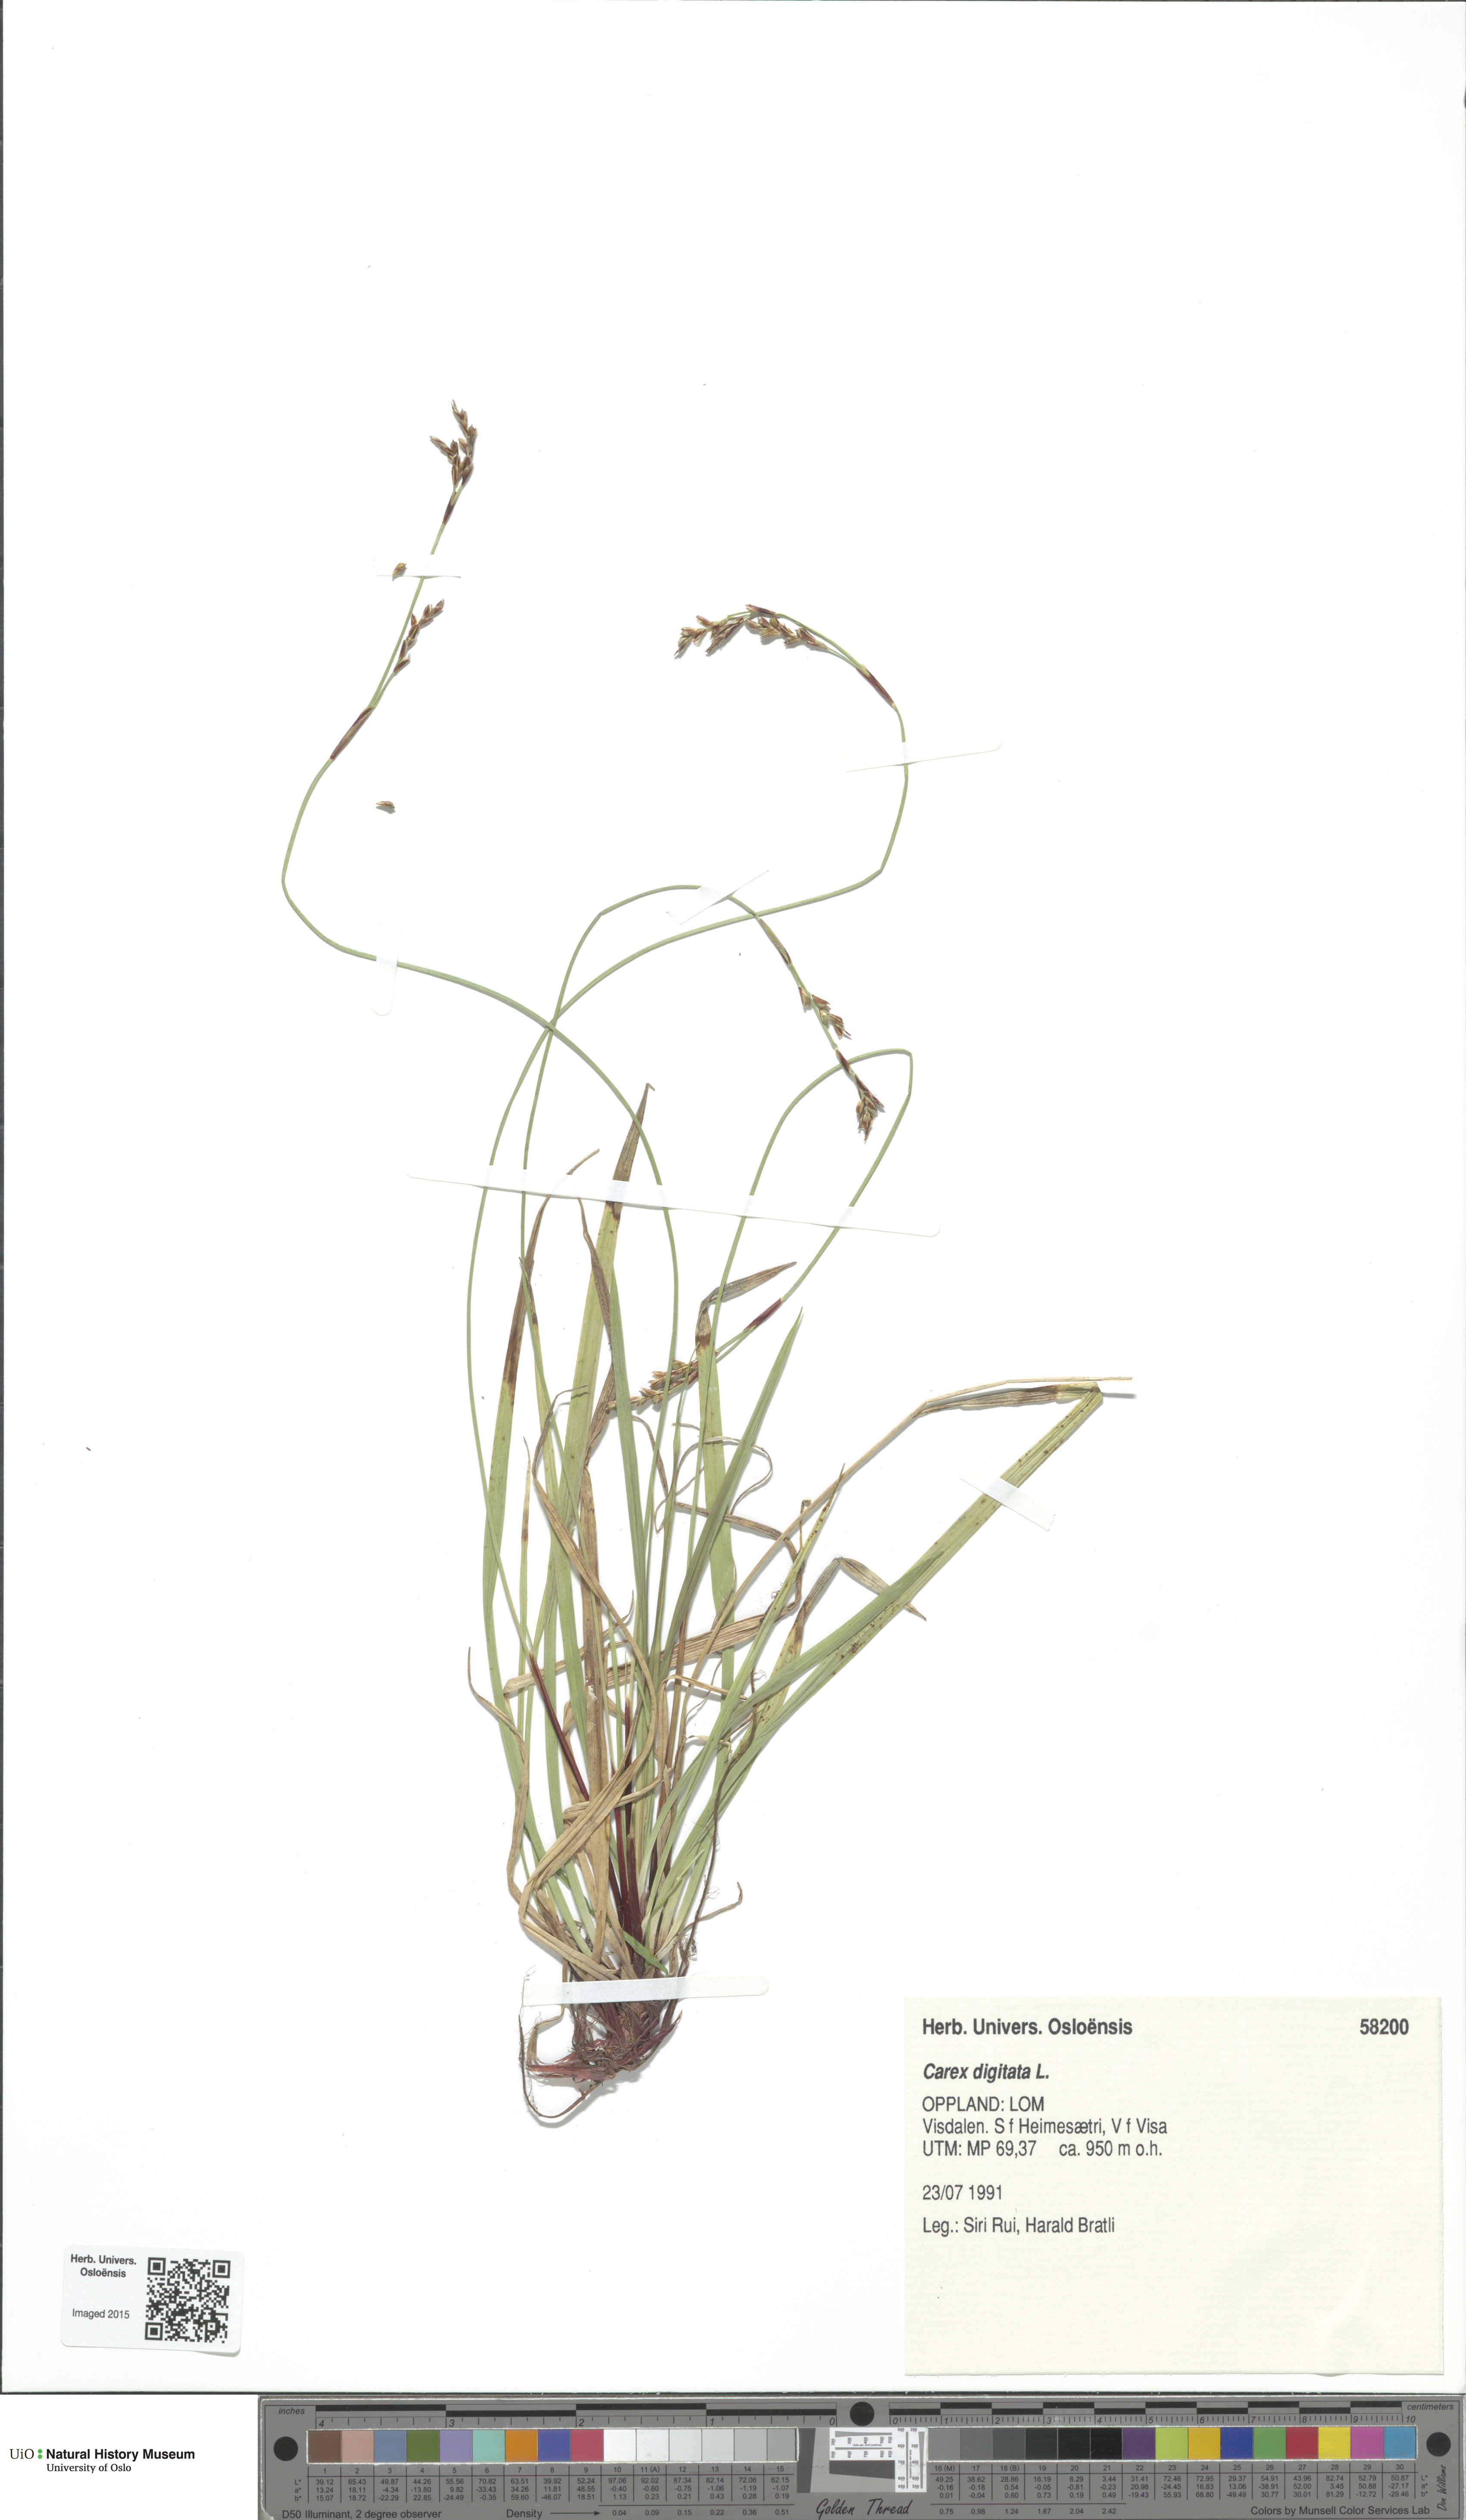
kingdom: Plantae
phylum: Tracheophyta
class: Liliopsida
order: Poales
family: Cyperaceae
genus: Carex
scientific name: Carex digitata
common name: Fingered sedge
